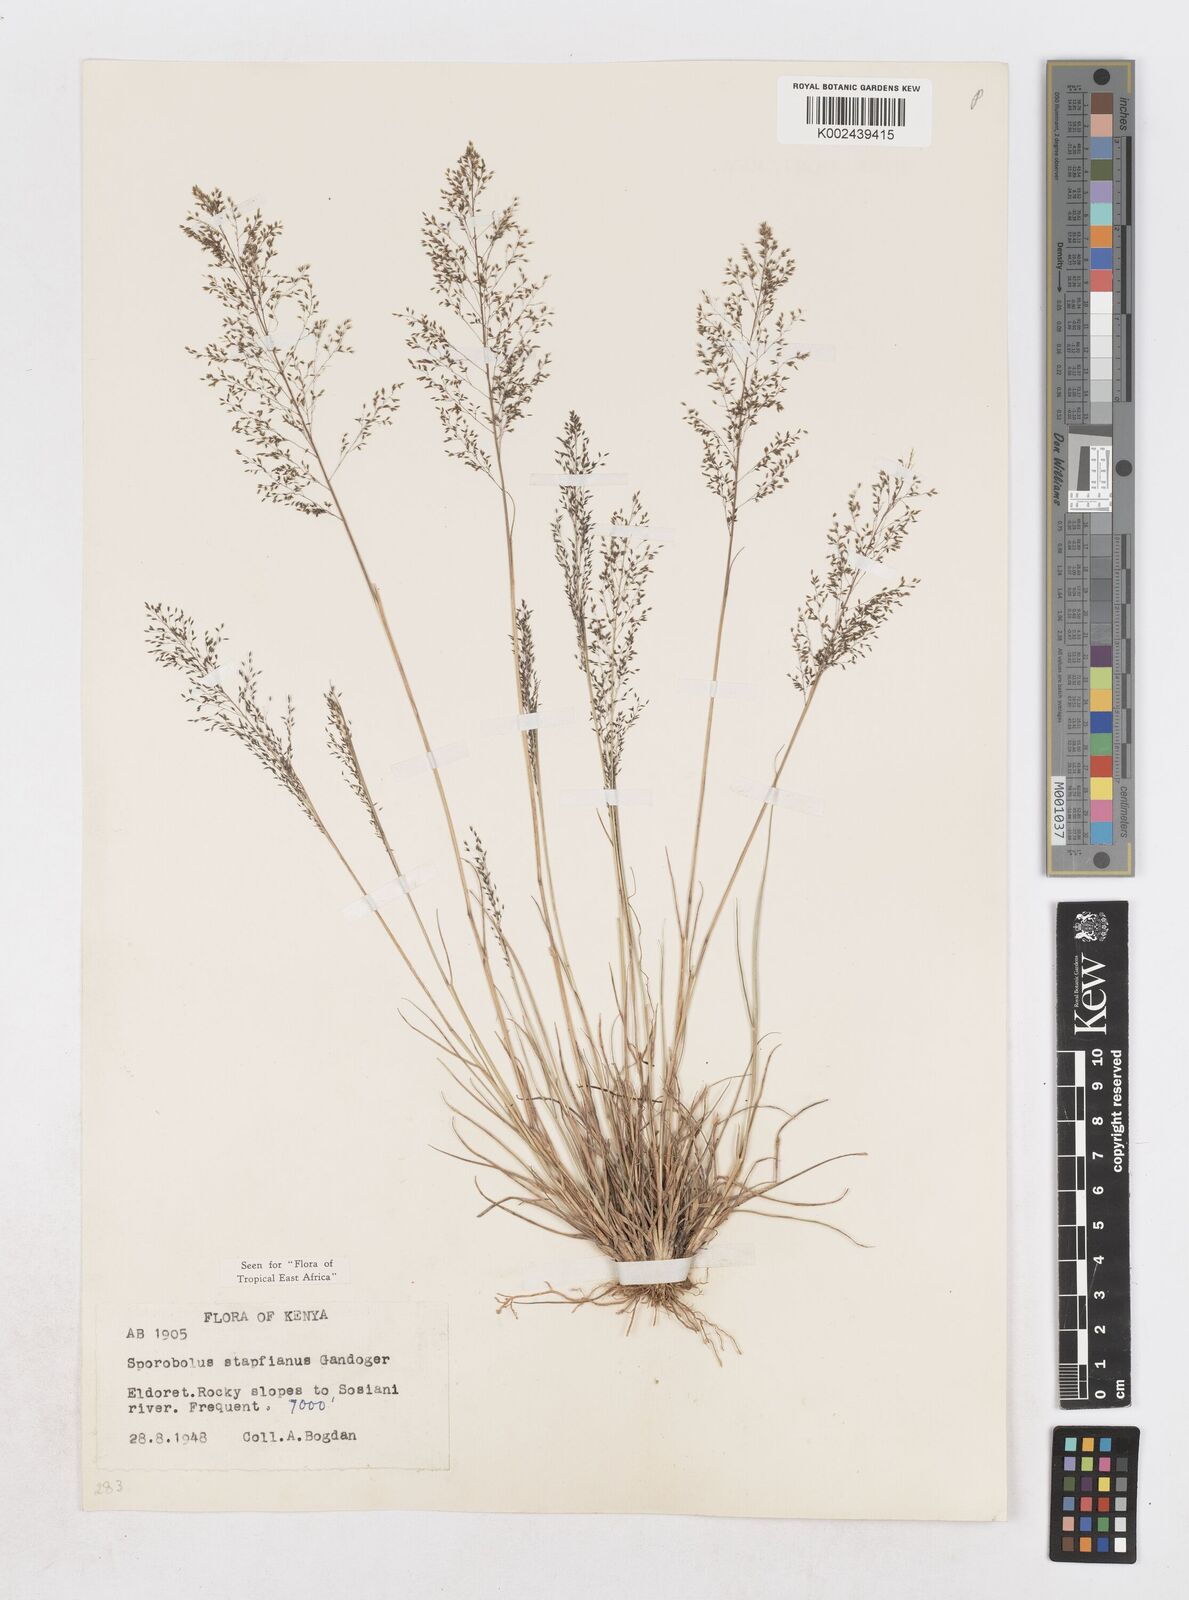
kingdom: Plantae
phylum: Tracheophyta
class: Liliopsida
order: Poales
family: Poaceae
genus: Sporobolus
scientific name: Sporobolus stapfianus
